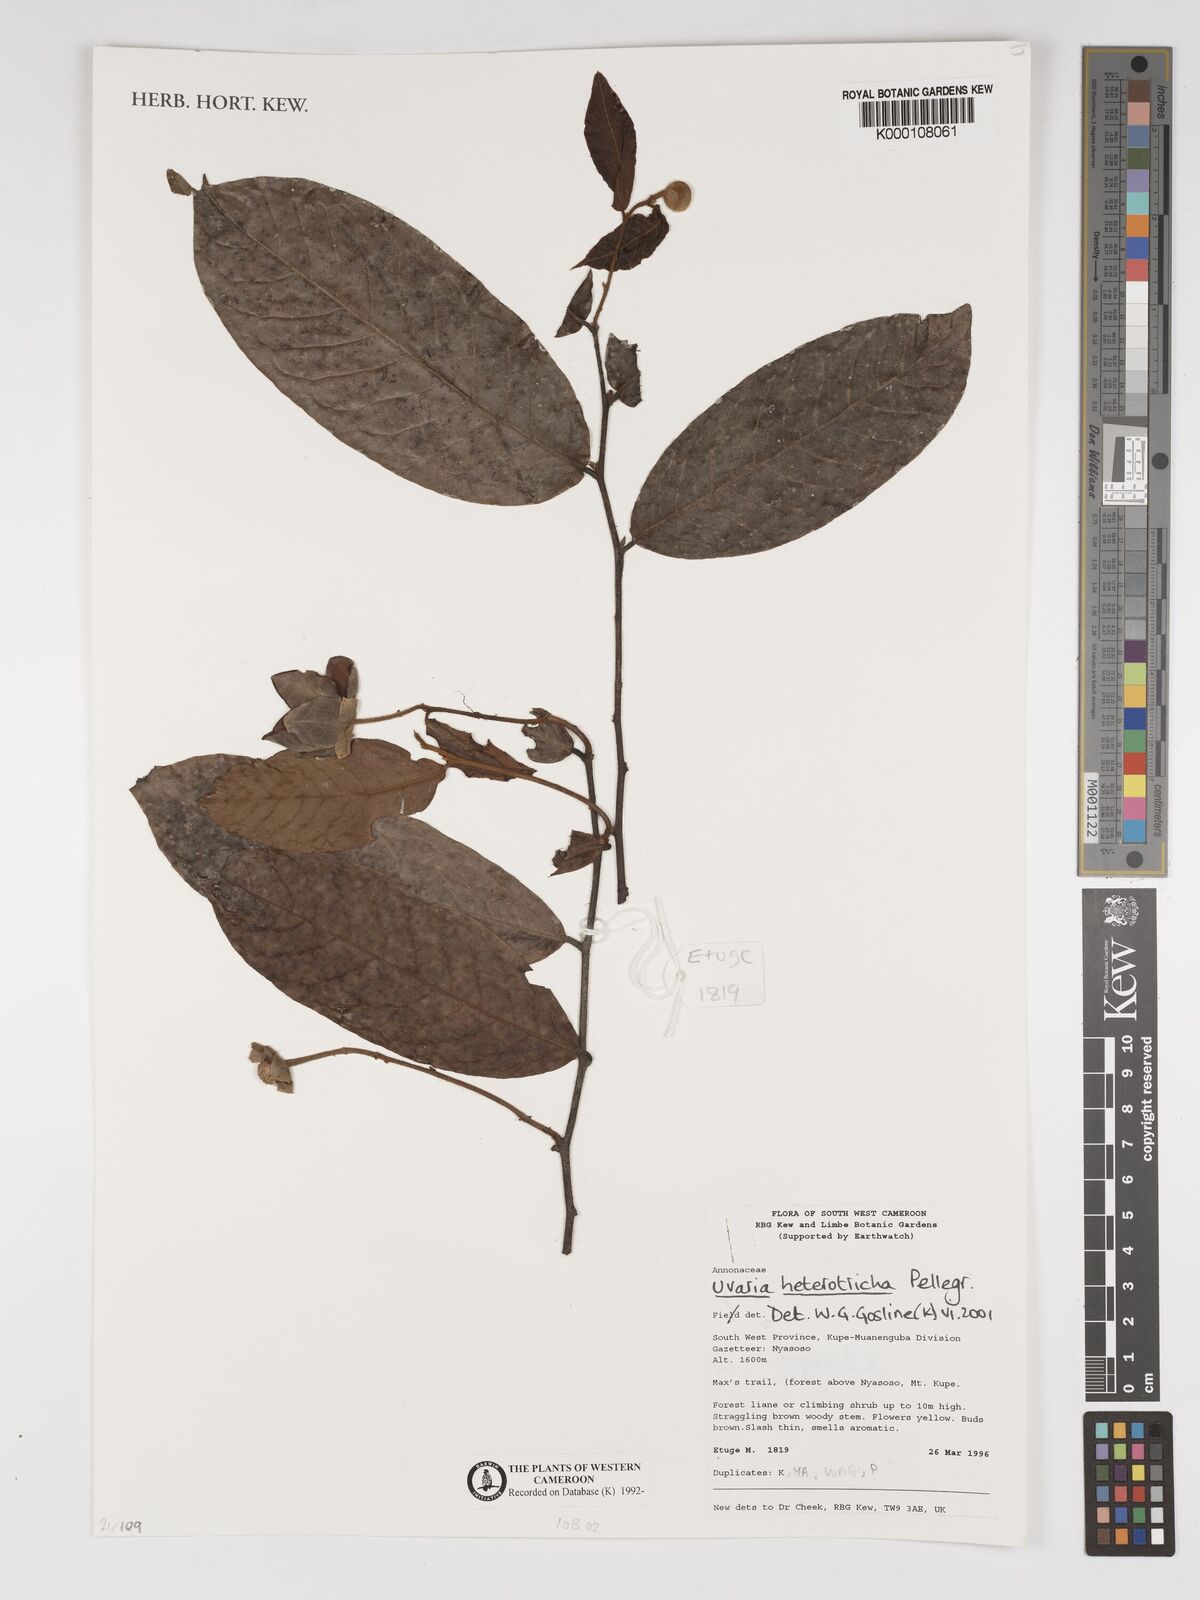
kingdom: Plantae
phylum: Tracheophyta
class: Magnoliopsida
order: Magnoliales
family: Annonaceae
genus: Uvaria
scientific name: Uvaria heterotricha
